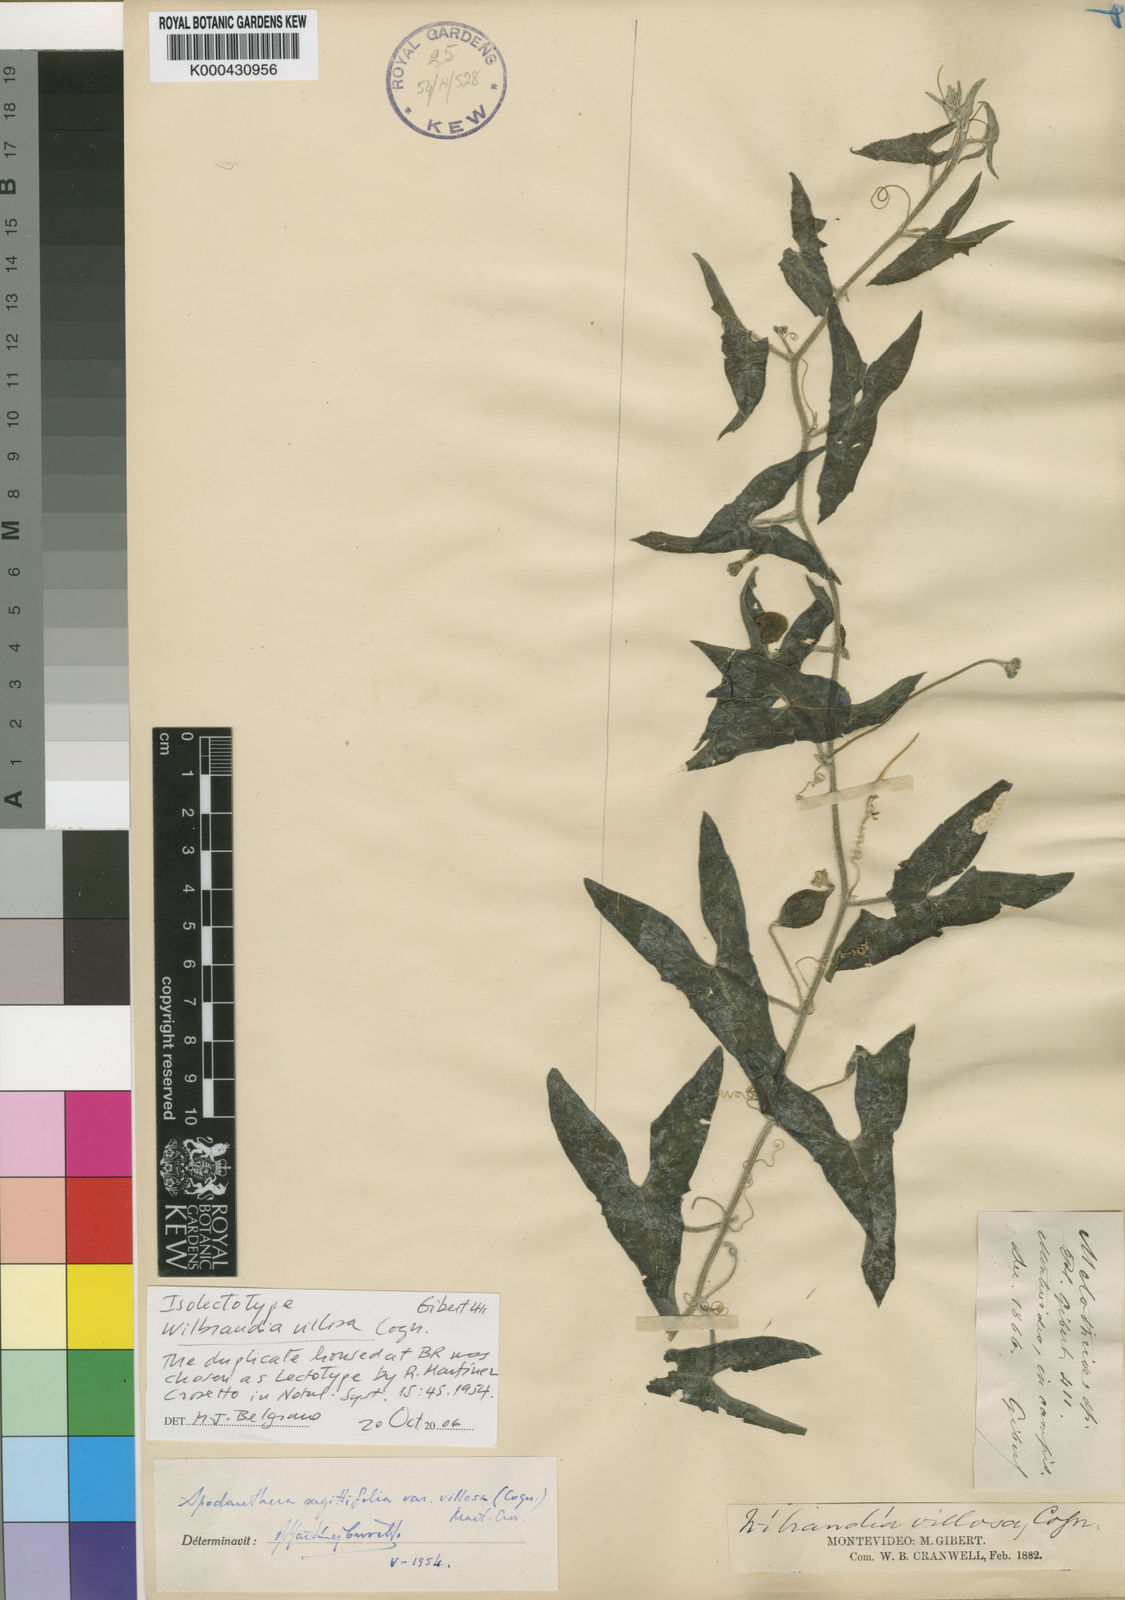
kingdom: Plantae
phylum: Tracheophyta
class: Magnoliopsida
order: Cucurbitales
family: Cucurbitaceae
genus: Apodanthera
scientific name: Apodanthera linearis
